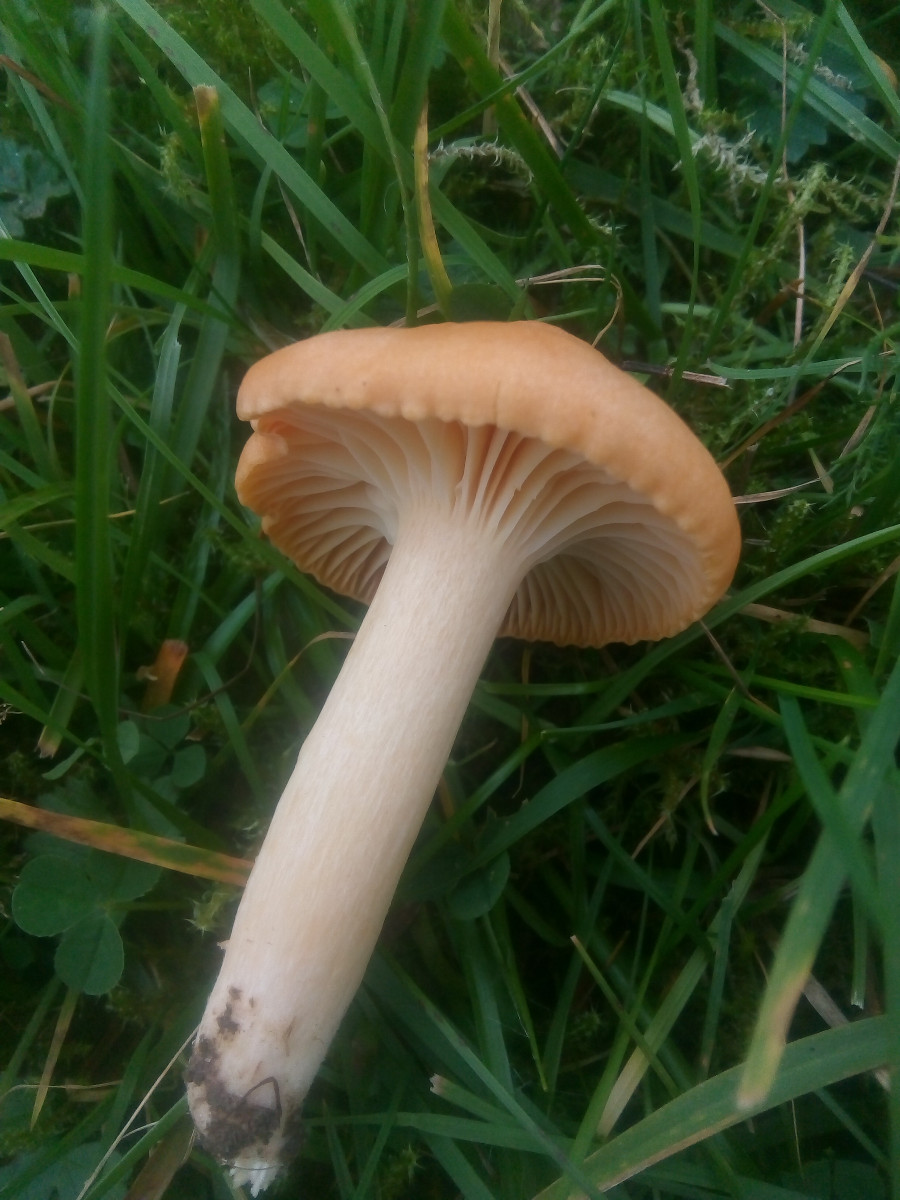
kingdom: Fungi
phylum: Basidiomycota
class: Agaricomycetes
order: Agaricales
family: Hygrophoraceae
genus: Cuphophyllus
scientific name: Cuphophyllus pratensis
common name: eng-vokshat
